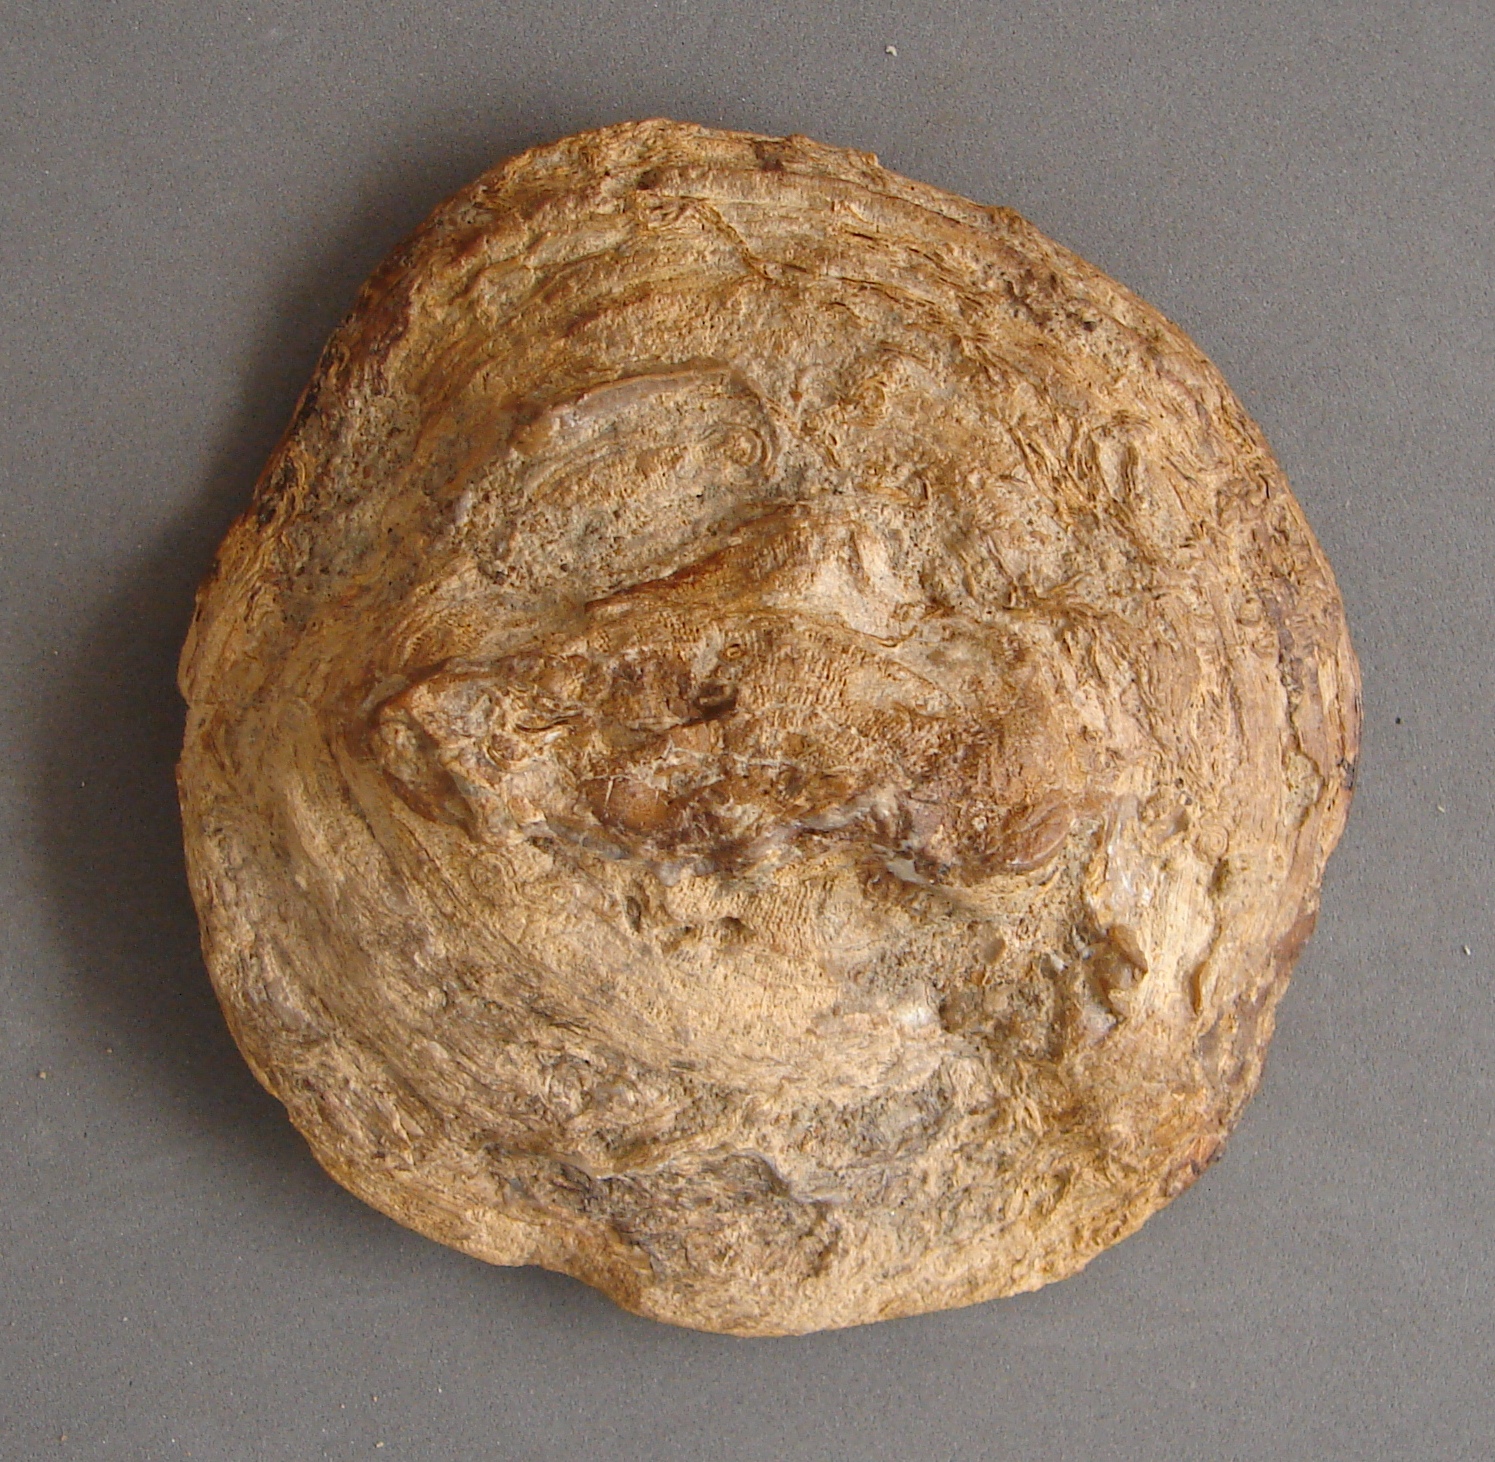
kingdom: Animalia
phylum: Cnidaria
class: Anthozoa
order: Scleractinia
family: Thamnasteriidae
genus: Thamnasteria
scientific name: Thamnasteria
